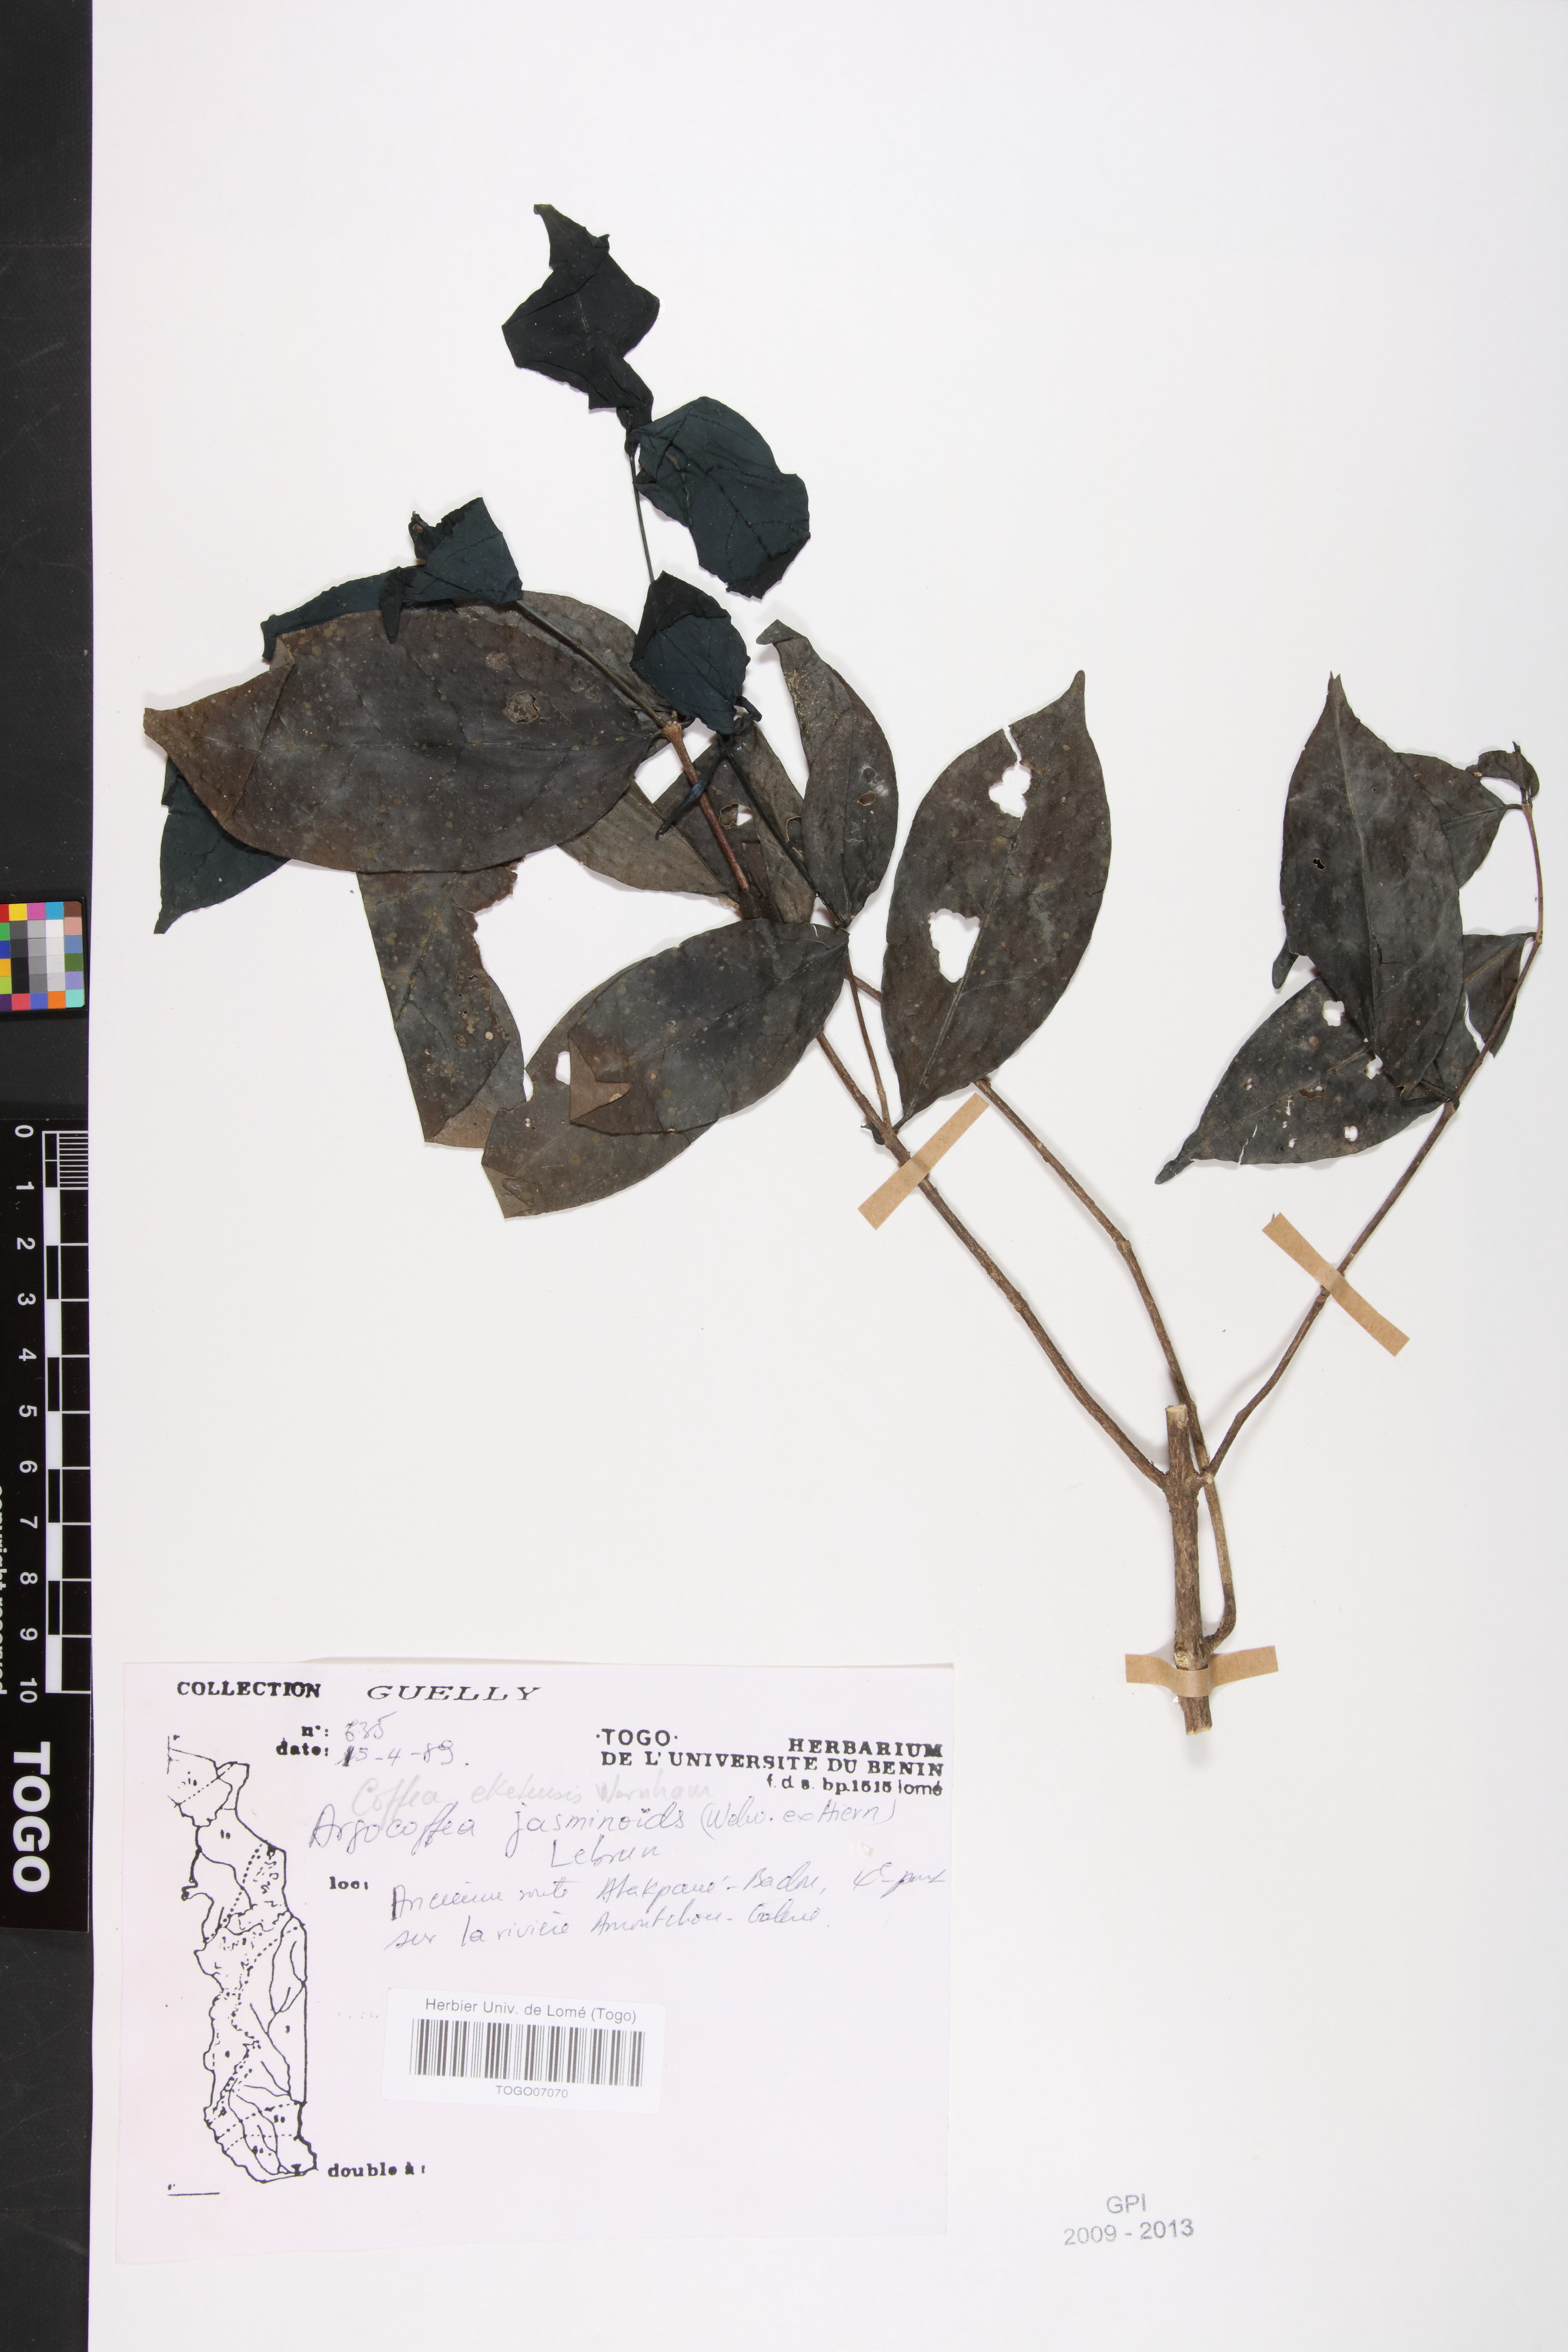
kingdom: Plantae
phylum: Tracheophyta
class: Magnoliopsida
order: Gentianales
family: Rubiaceae
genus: Argocoffeopsis
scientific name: Argocoffeopsis eketensis
